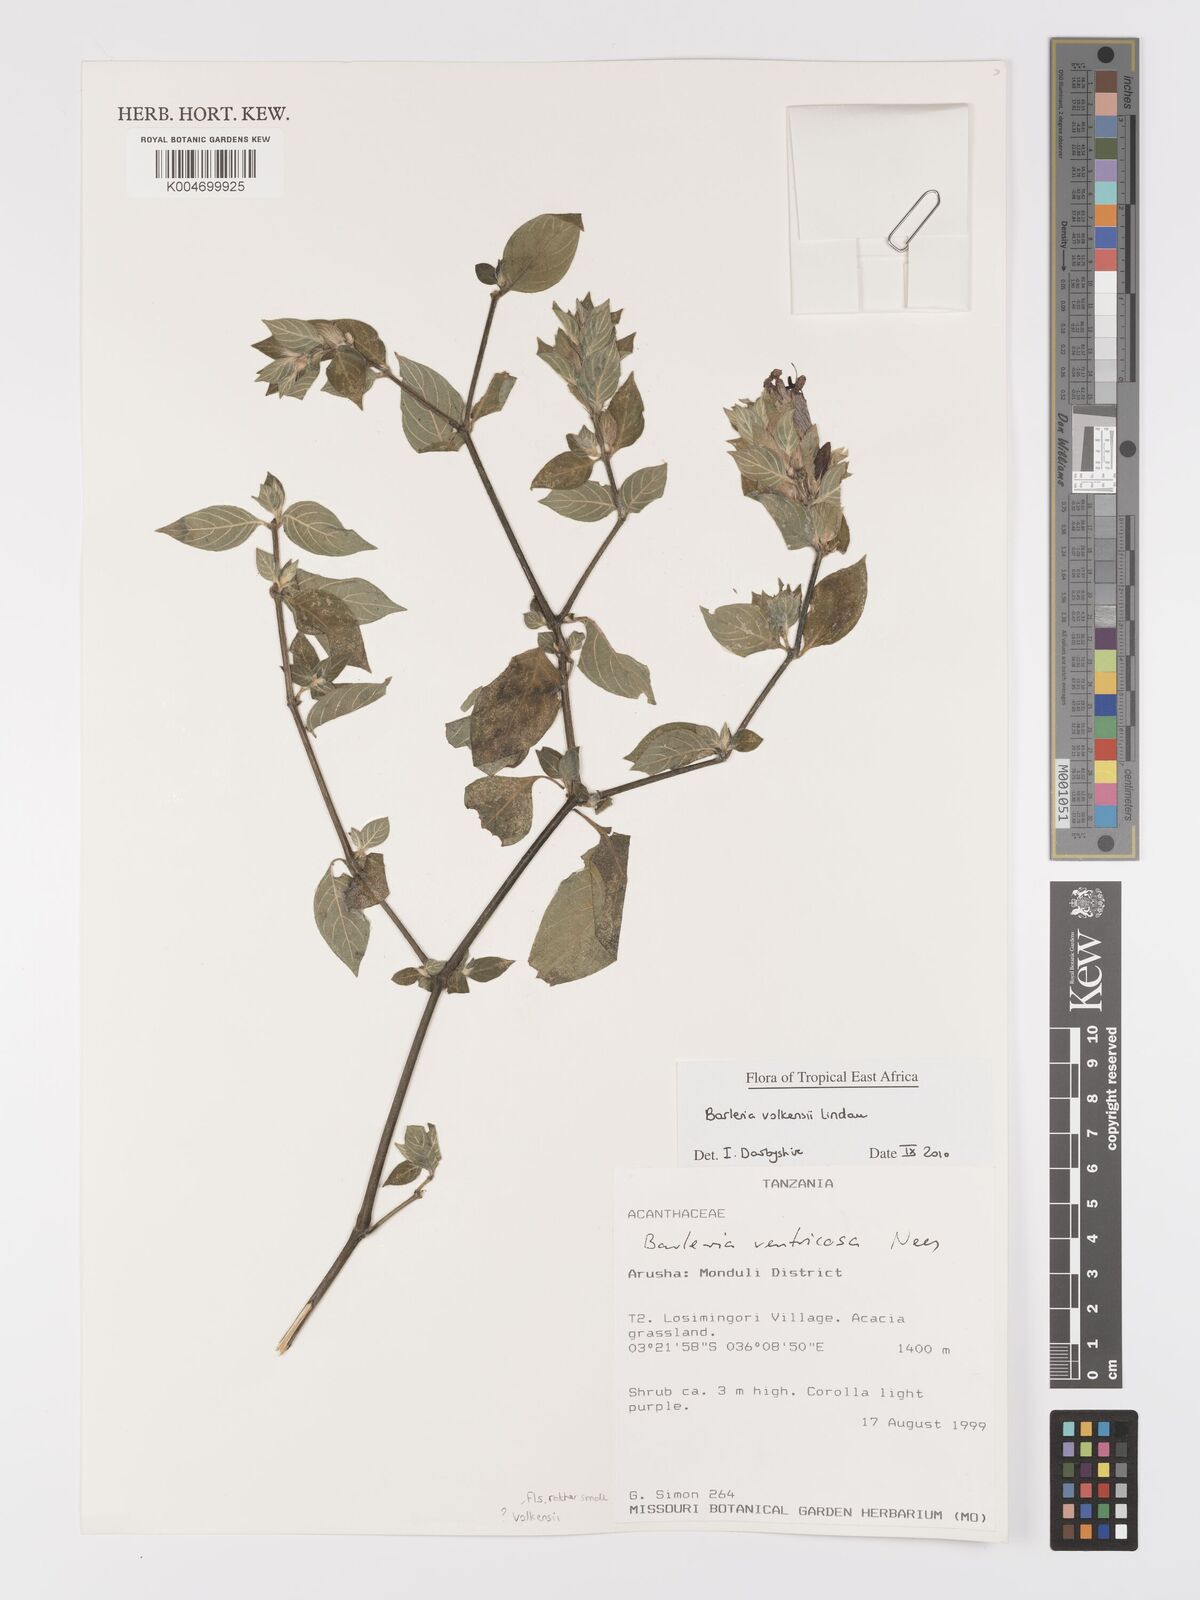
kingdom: Plantae
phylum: Tracheophyta
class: Magnoliopsida
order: Lamiales
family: Acanthaceae
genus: Barleria
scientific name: Barleria volkensii
